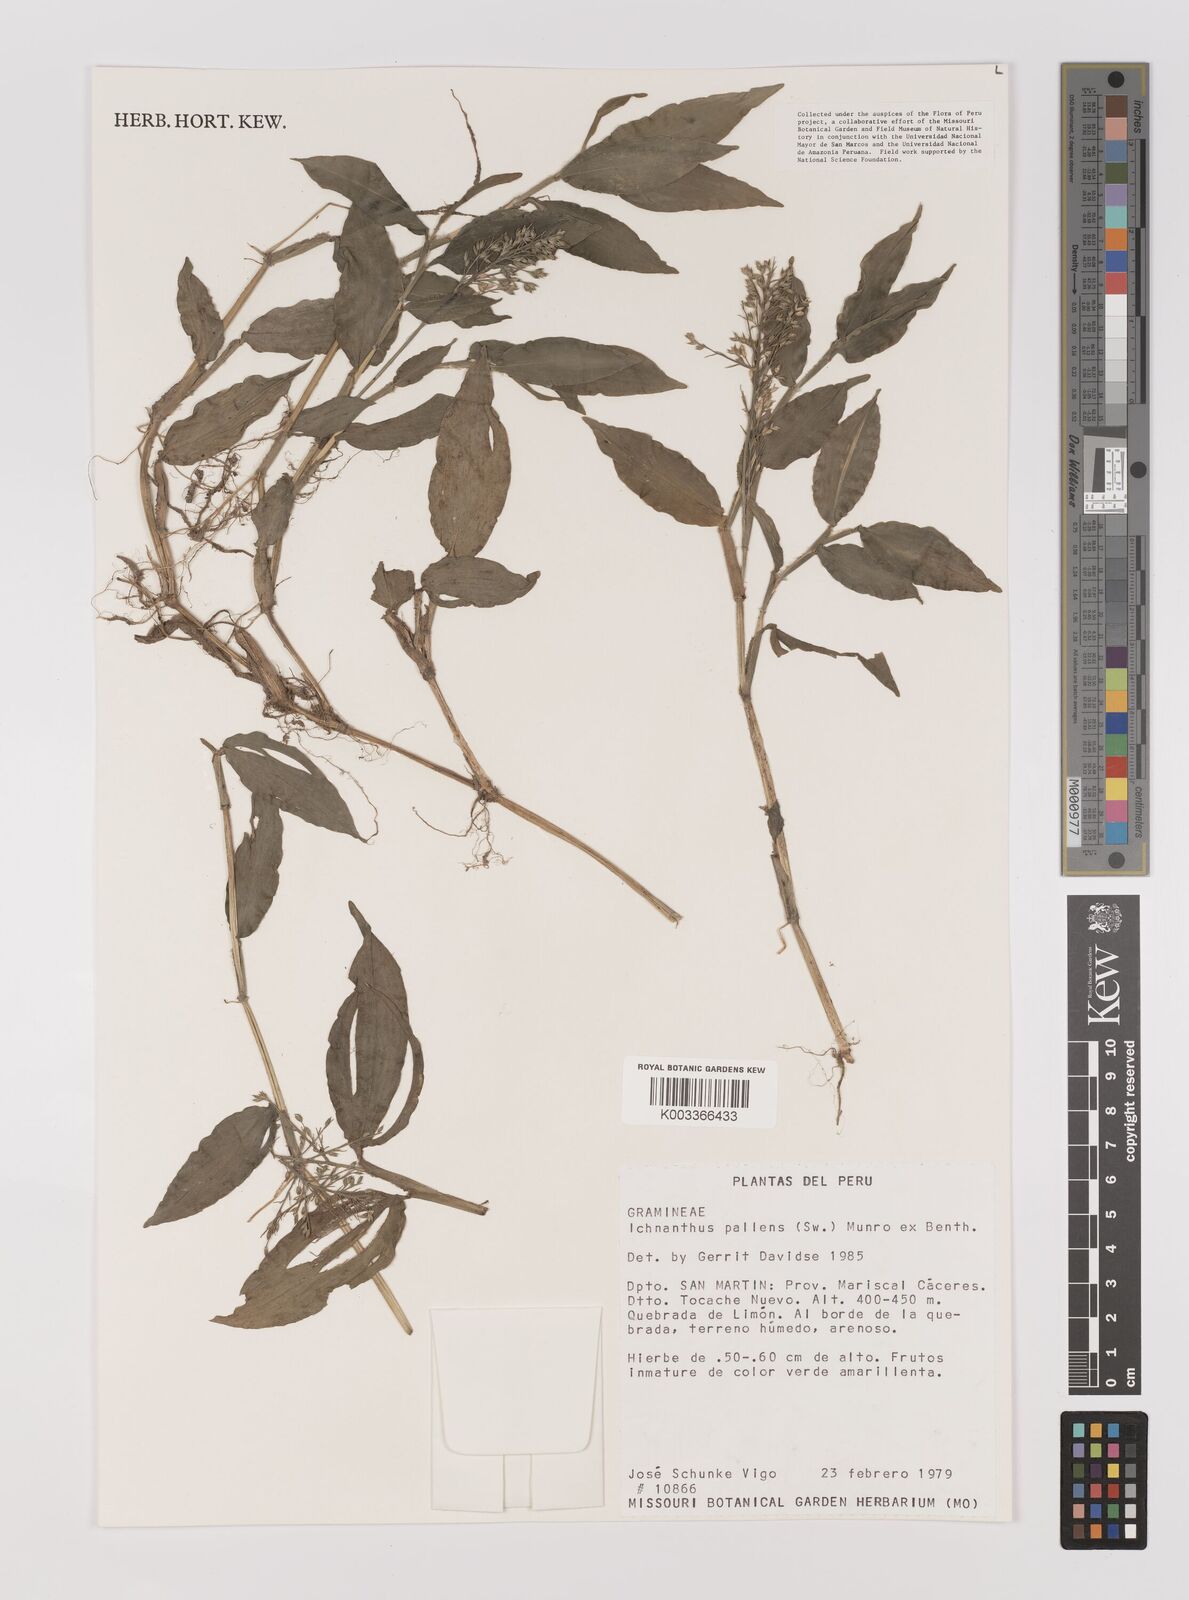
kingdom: Plantae
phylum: Tracheophyta
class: Liliopsida
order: Poales
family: Poaceae
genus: Ichnanthus
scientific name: Ichnanthus pallens
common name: Water grass
